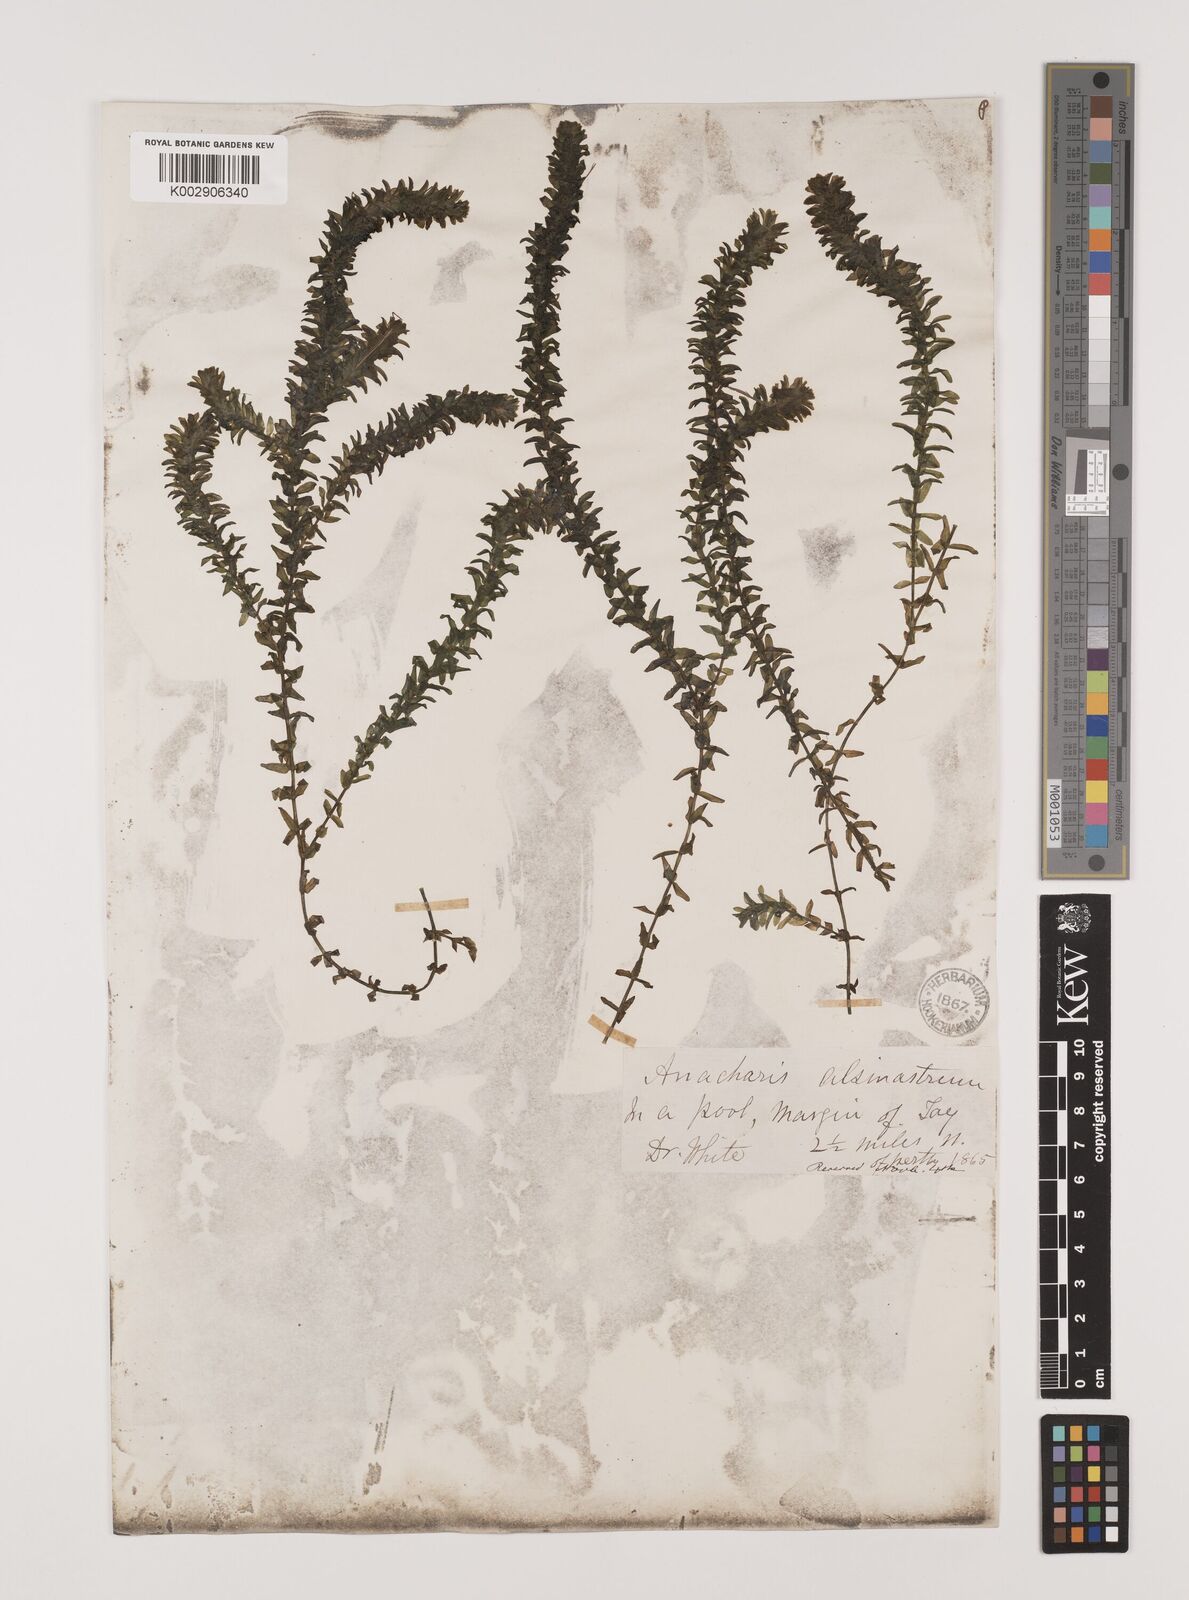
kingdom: Plantae
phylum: Tracheophyta
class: Liliopsida
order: Alismatales
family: Hydrocharitaceae
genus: Elodea
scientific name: Elodea canadensis
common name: Canadian waterweed
